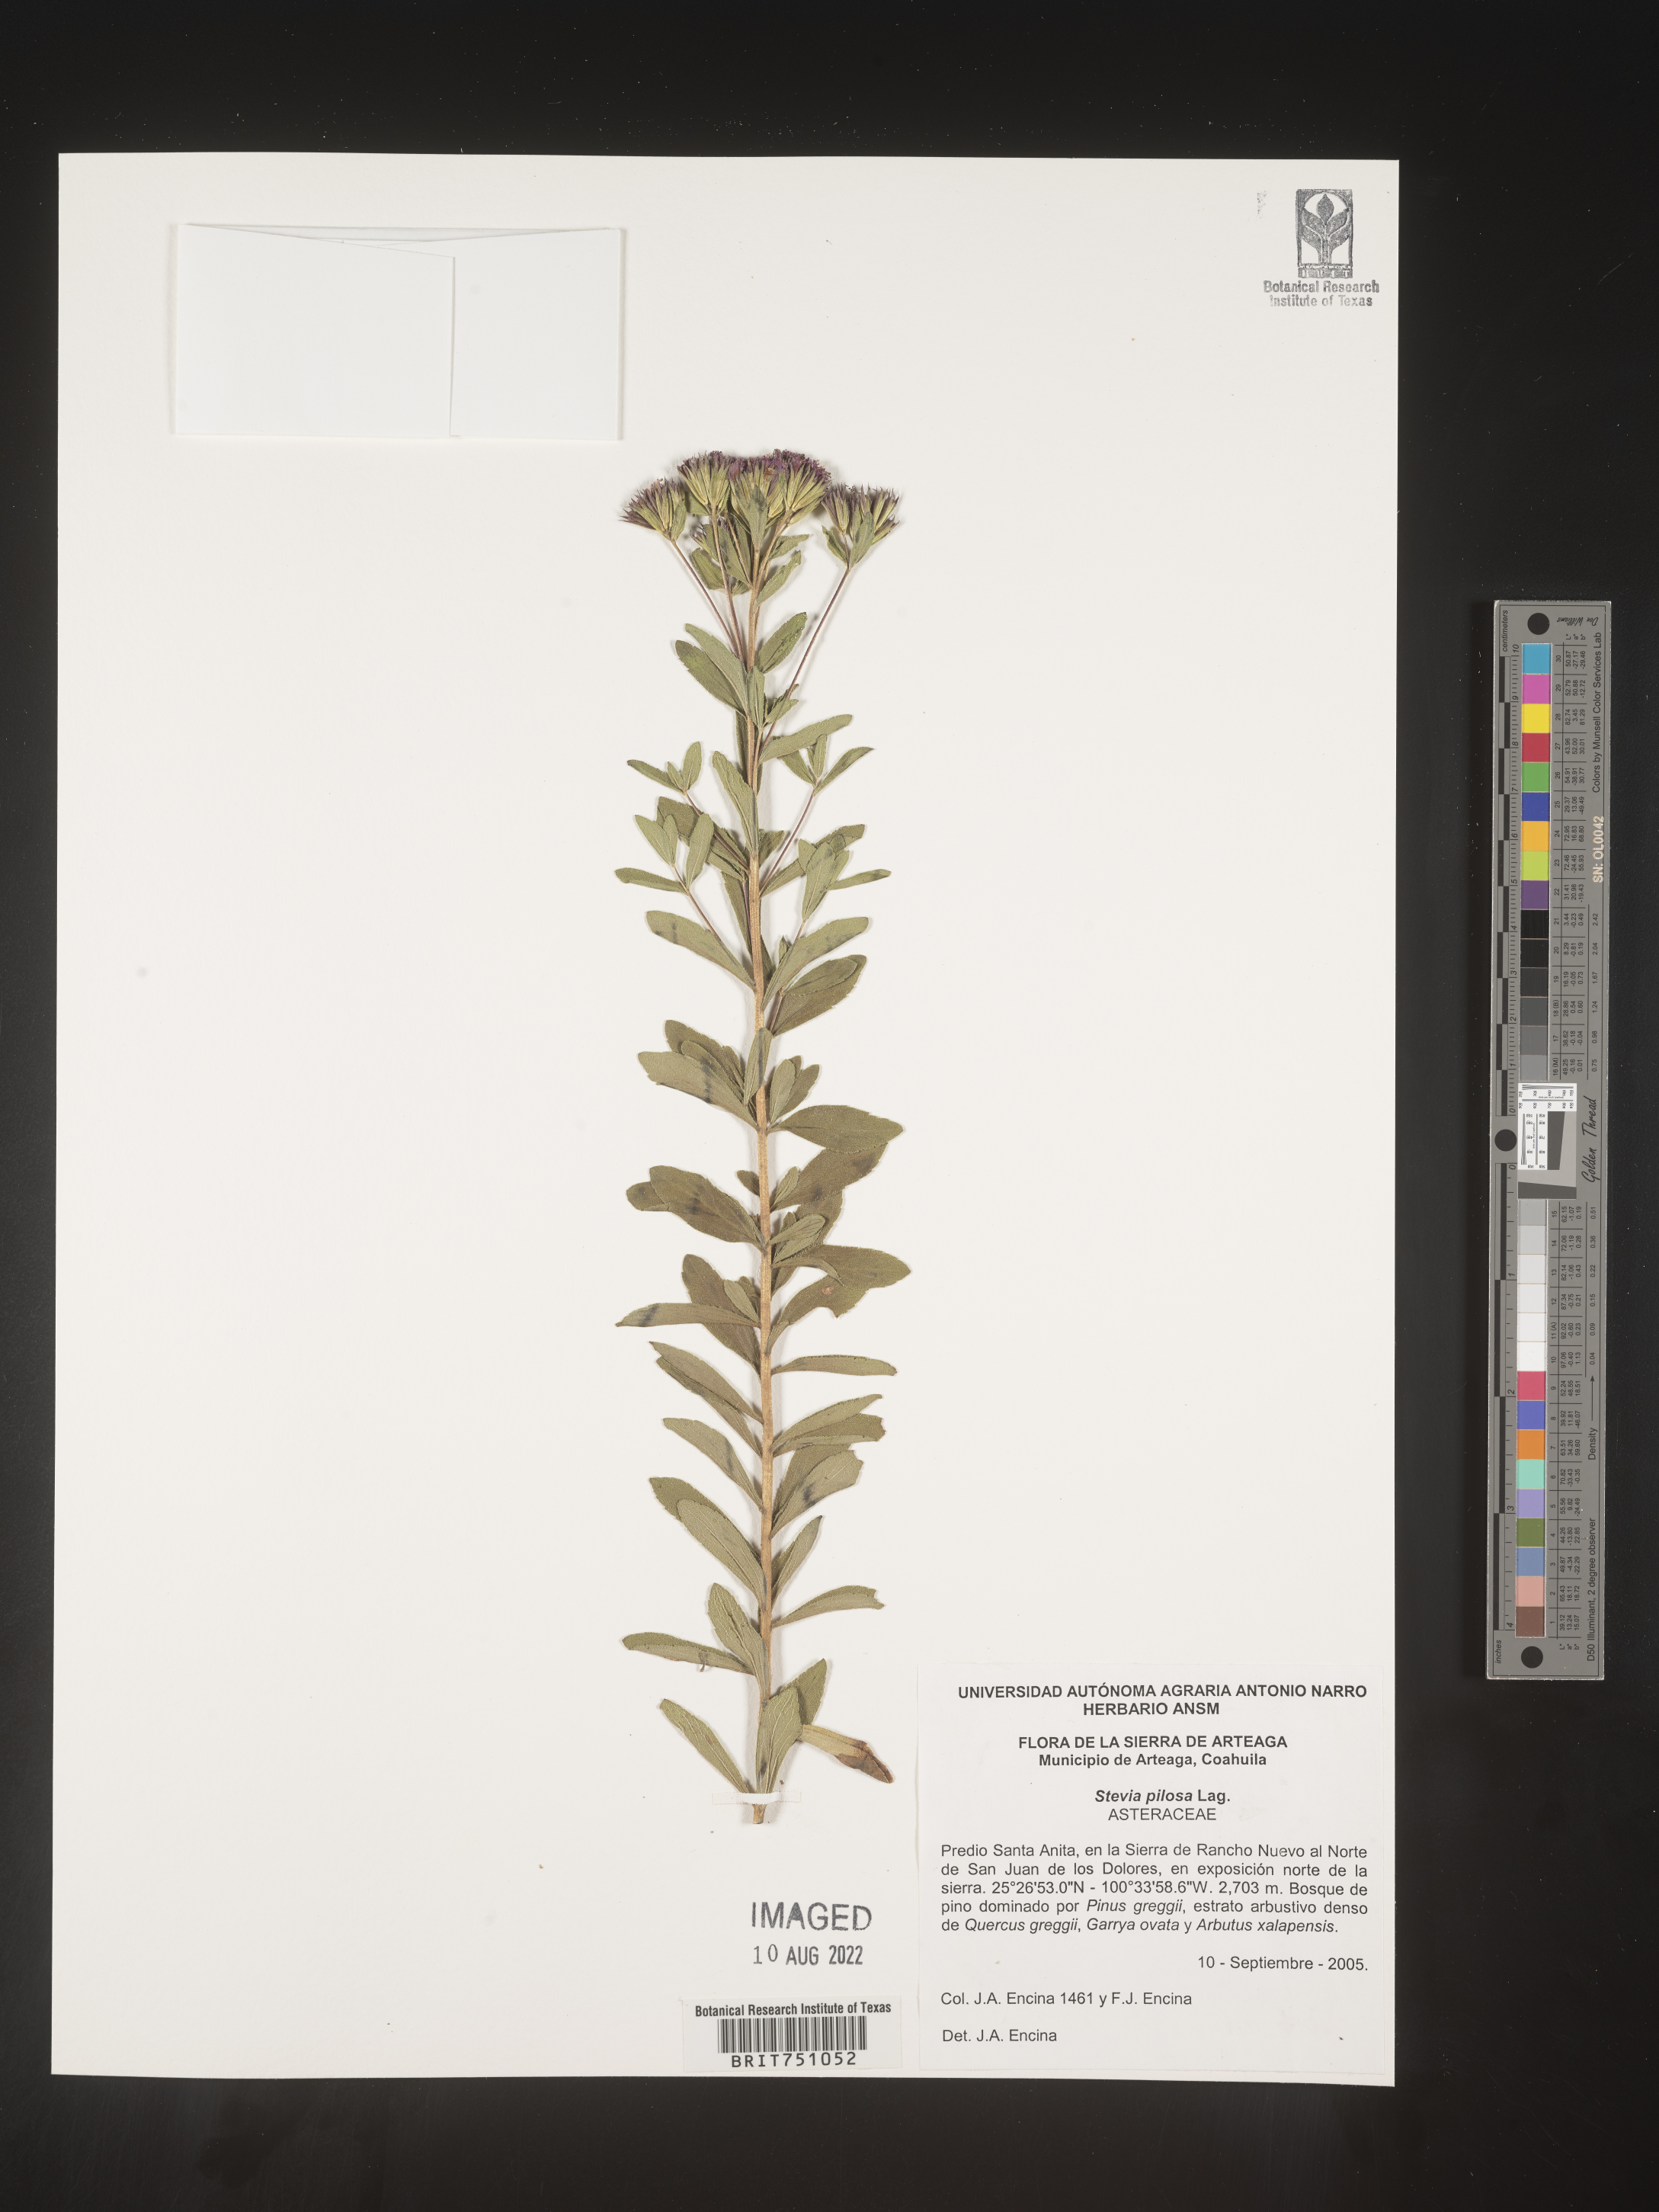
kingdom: Plantae
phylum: Tracheophyta
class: Magnoliopsida
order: Asterales
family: Asteraceae
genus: Stevia
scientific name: Stevia
